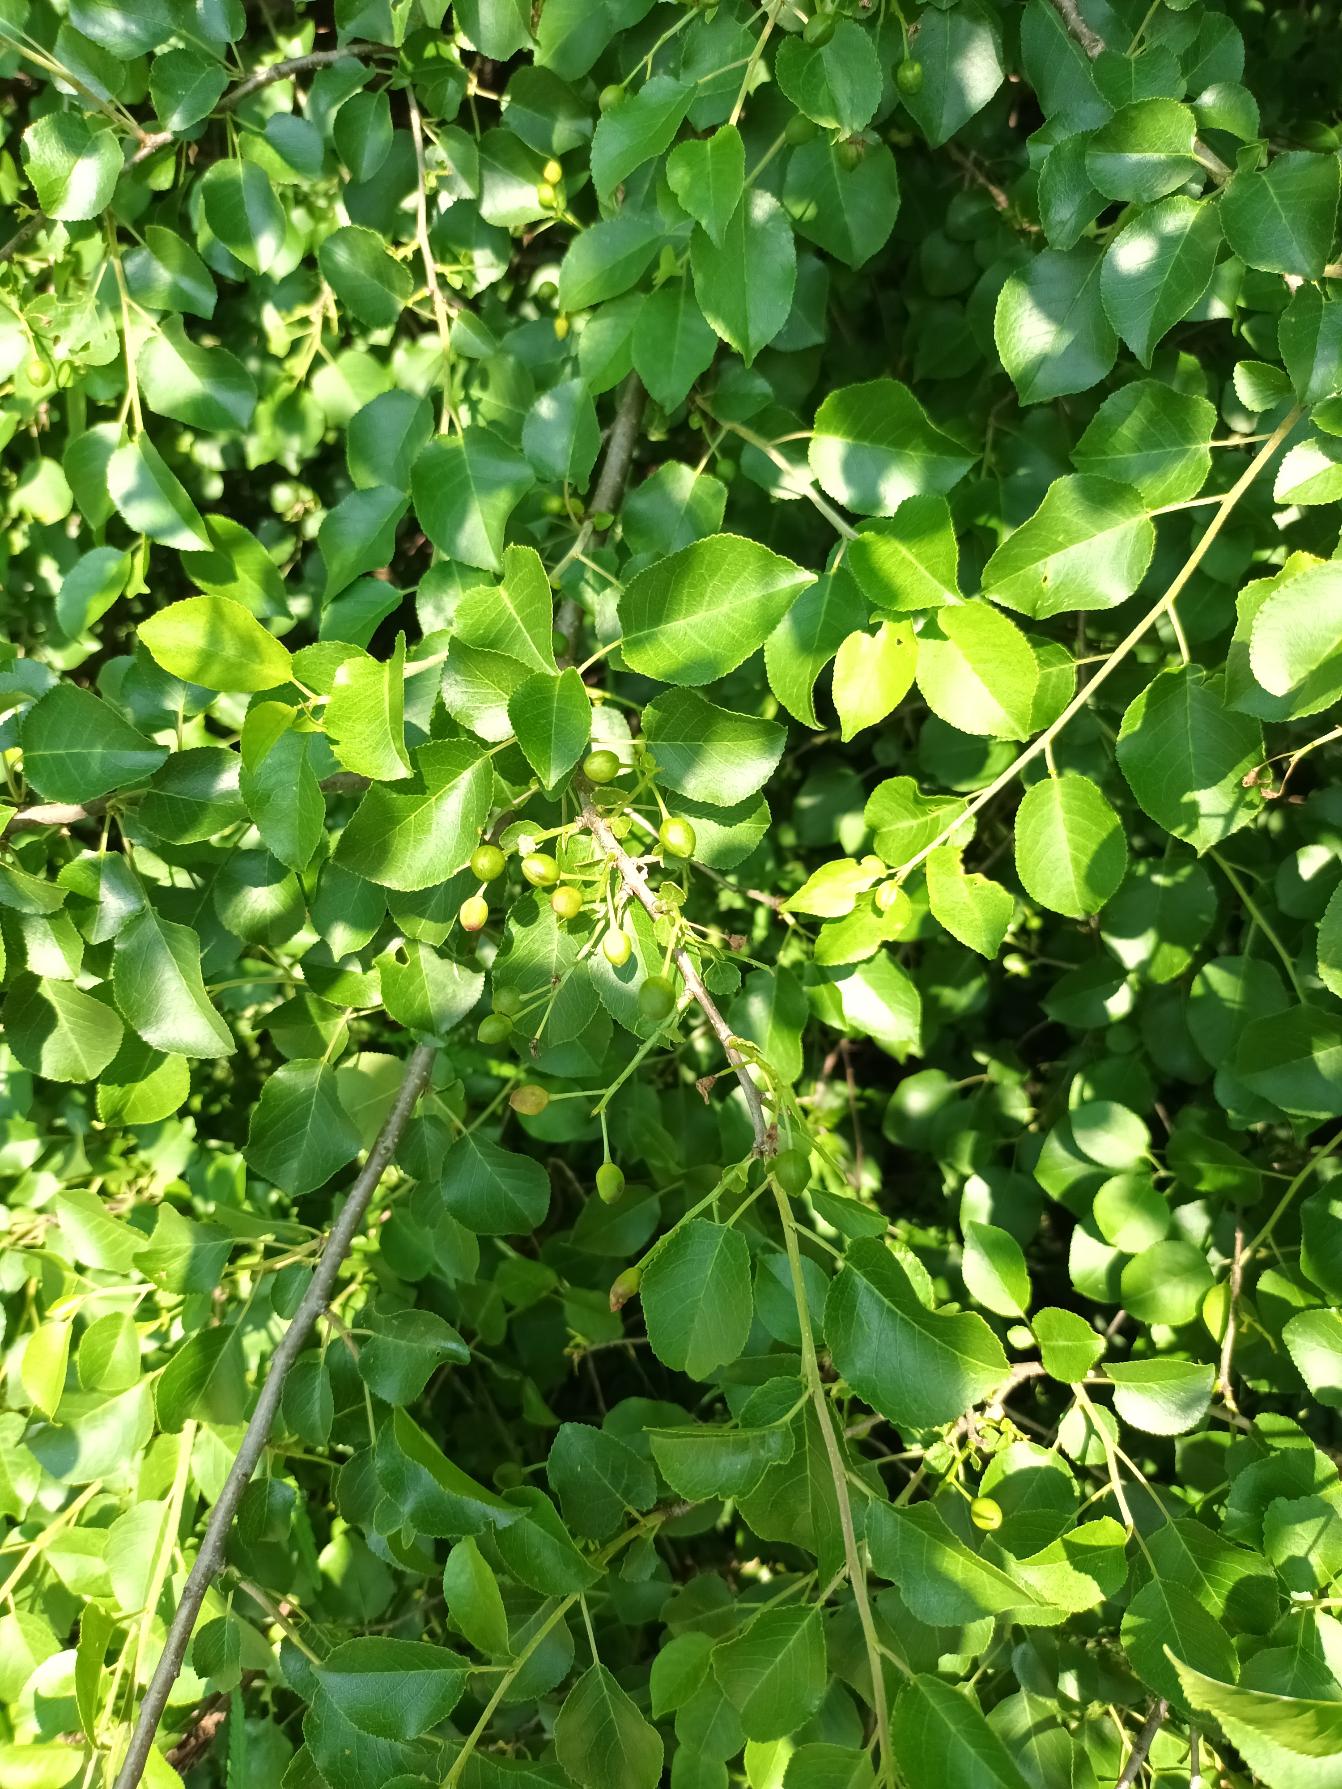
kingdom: Plantae
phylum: Tracheophyta
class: Magnoliopsida
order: Rosales
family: Rosaceae
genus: Prunus
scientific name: Prunus mahaleb
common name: Weichsel
